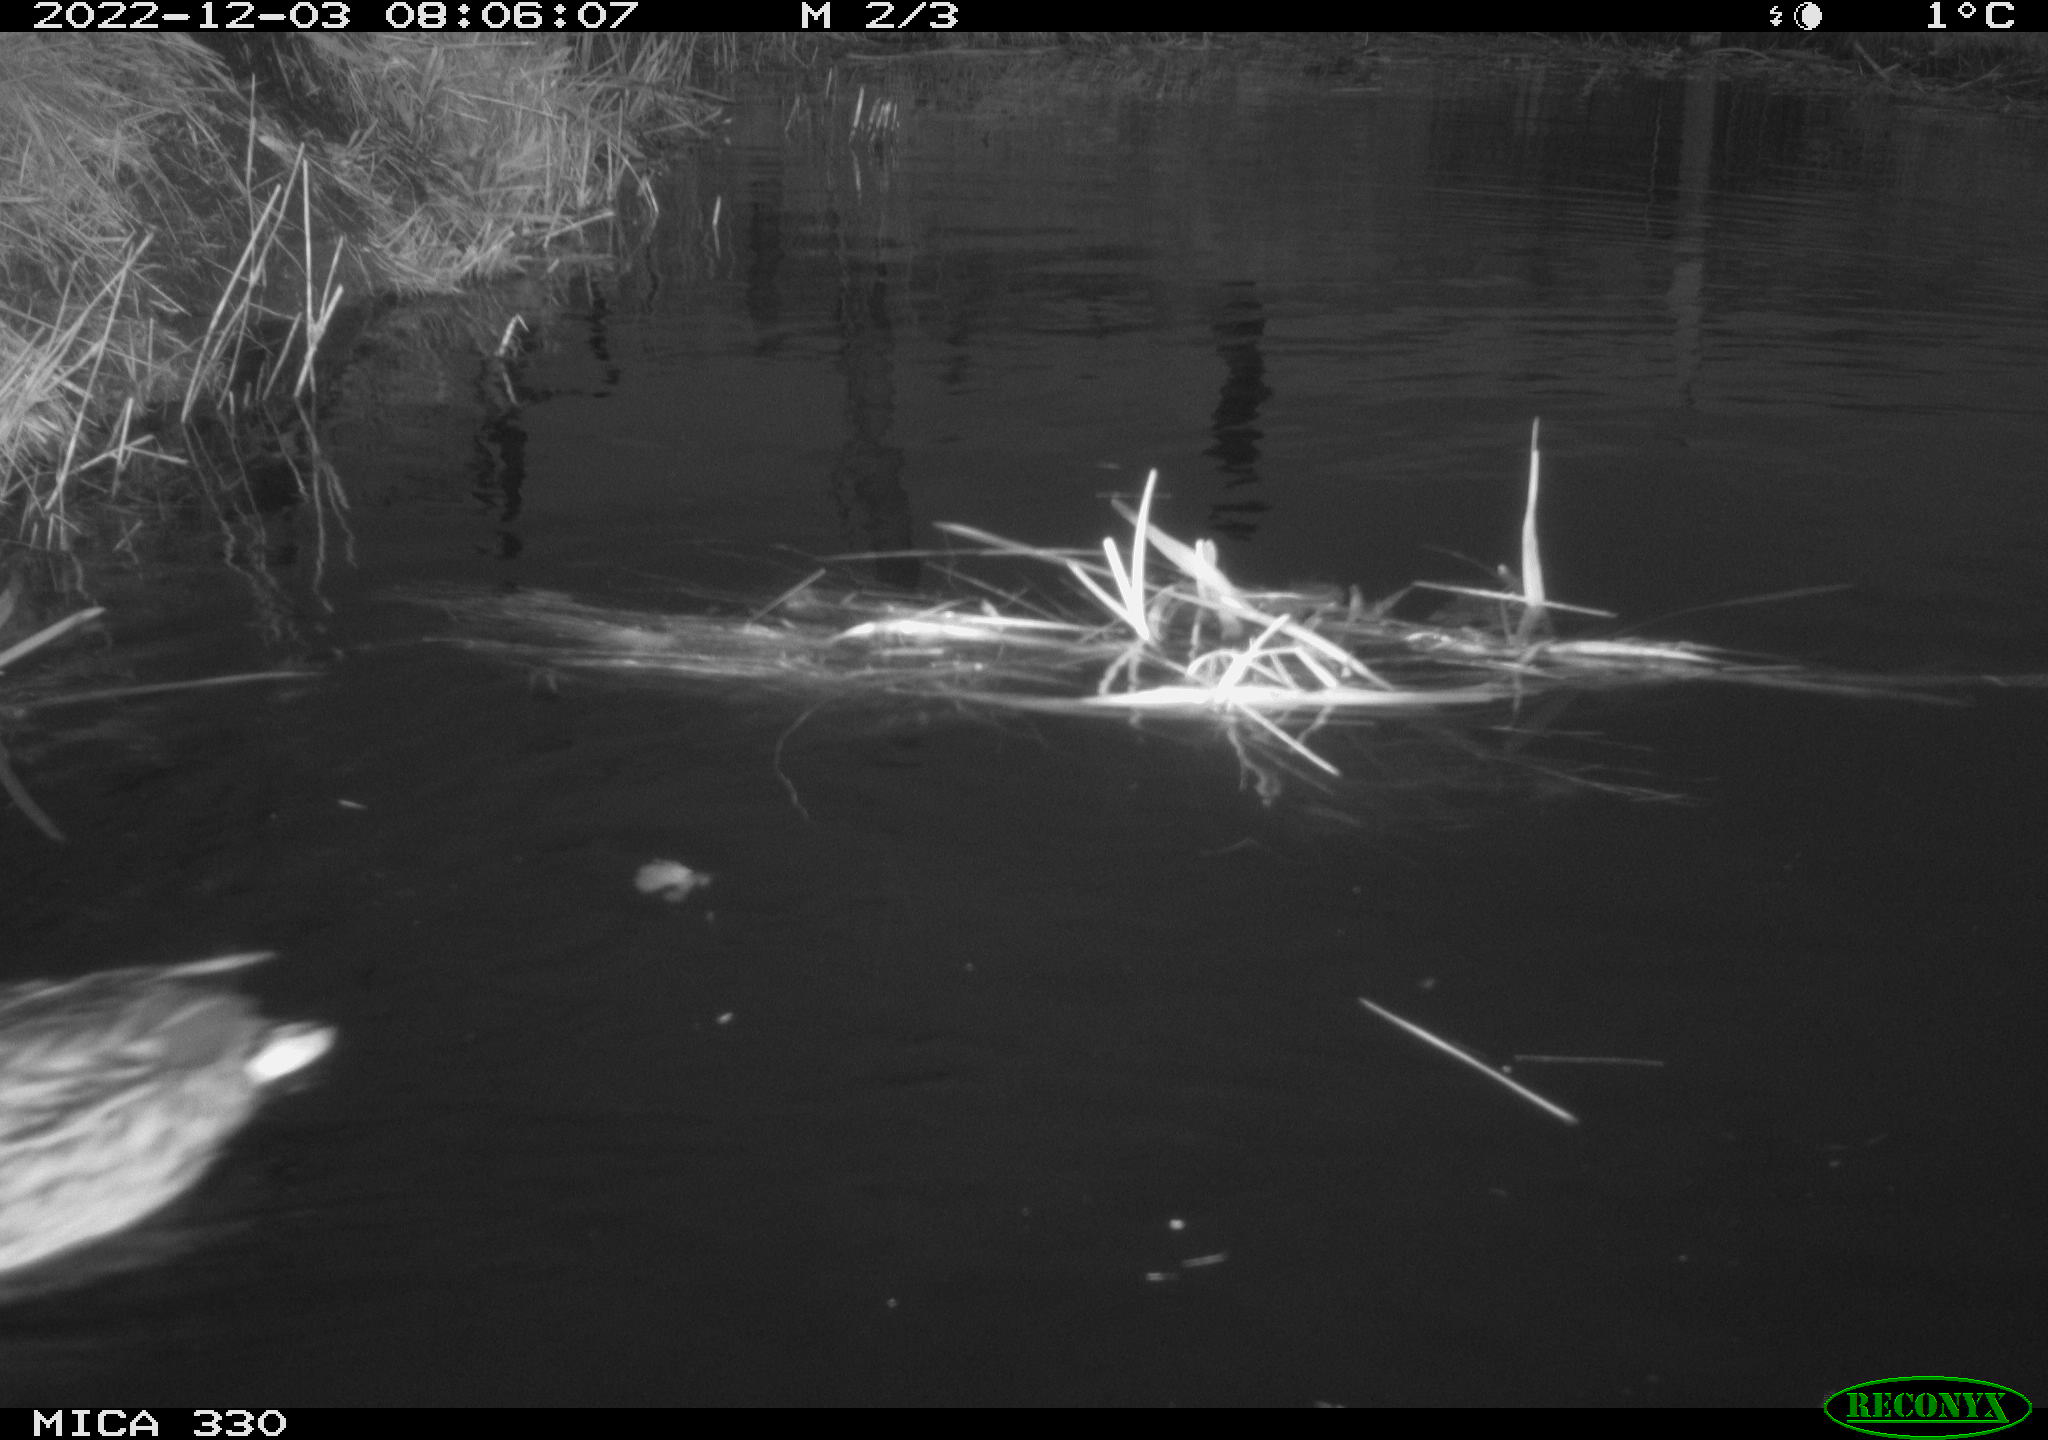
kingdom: Animalia
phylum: Chordata
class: Aves
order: Anseriformes
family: Anatidae
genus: Anas
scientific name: Anas
